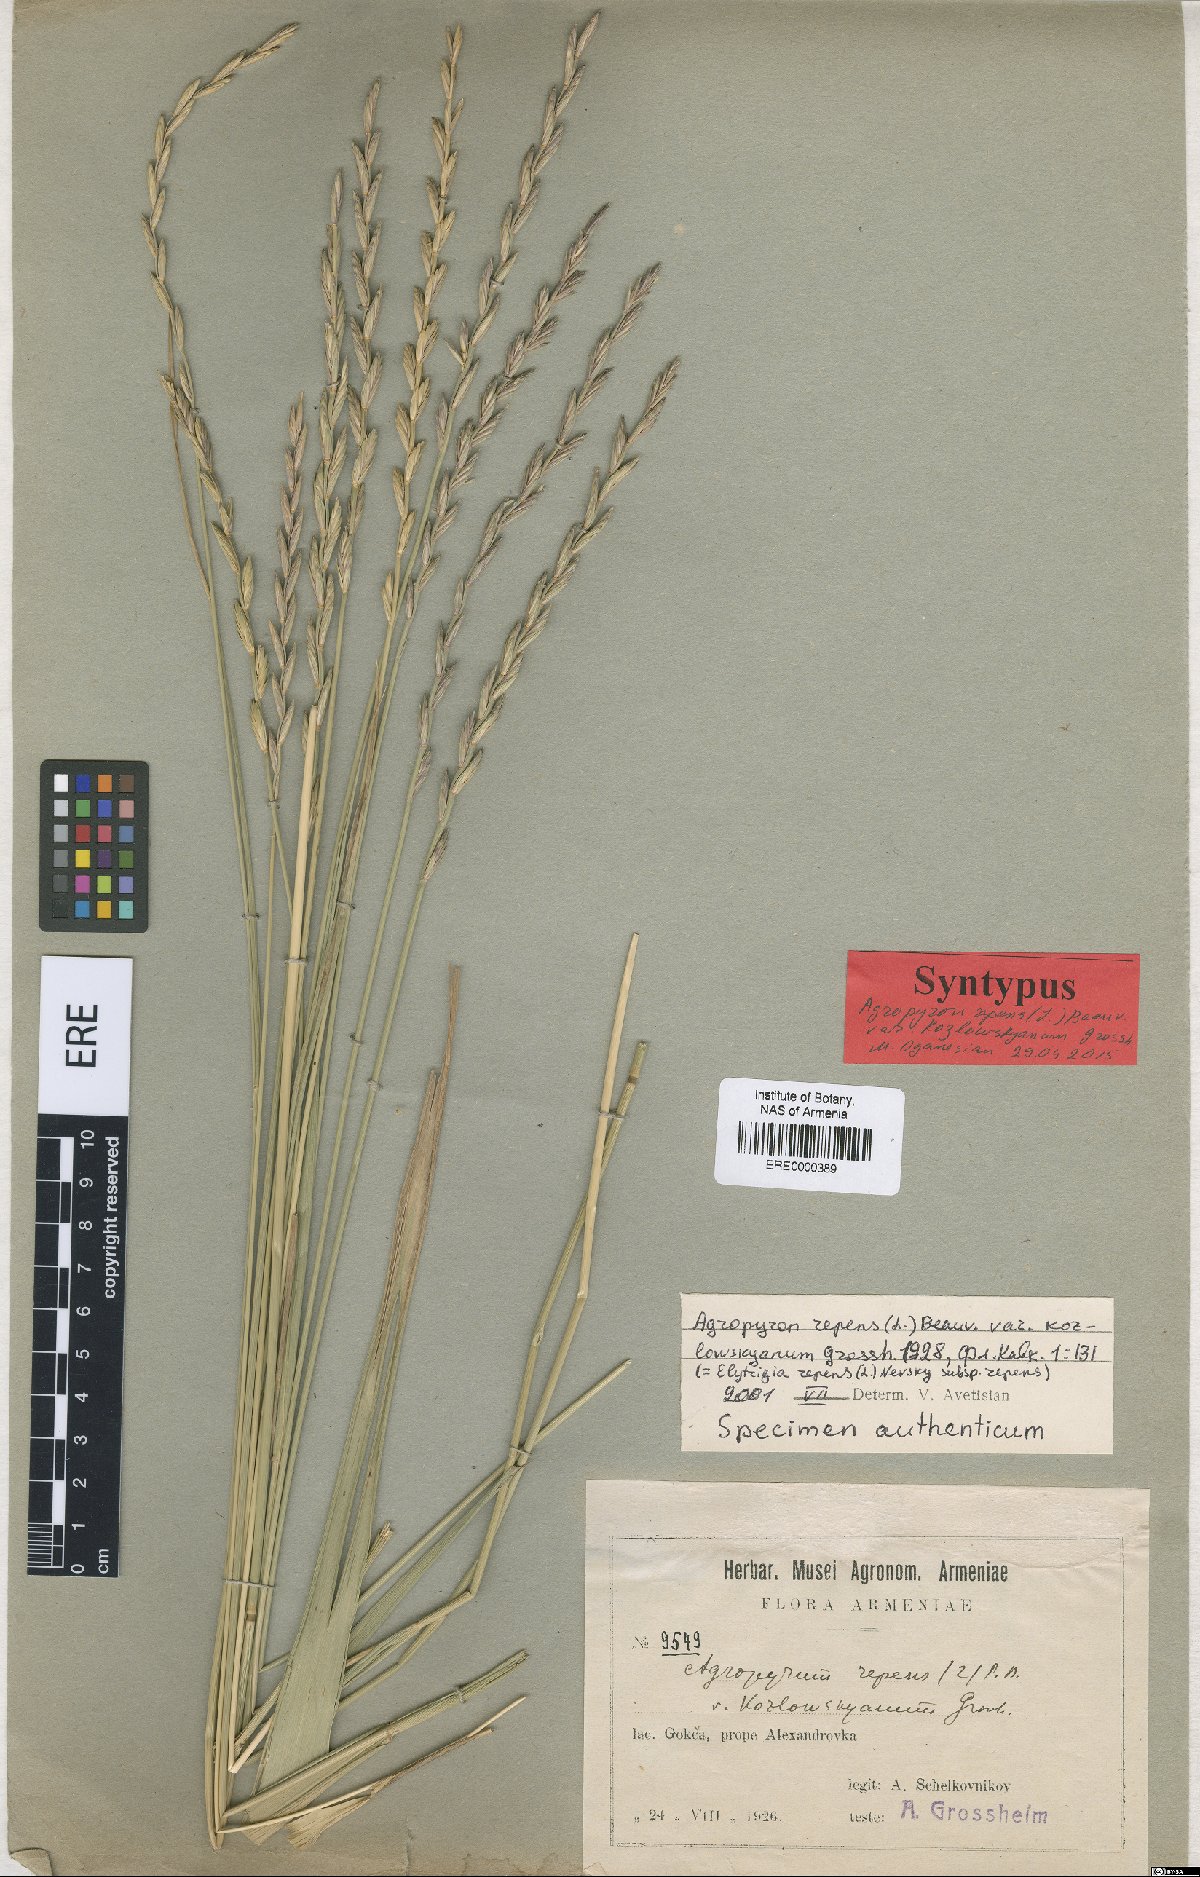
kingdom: Plantae
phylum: Tracheophyta
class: Liliopsida
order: Poales
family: Poaceae
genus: Elymus
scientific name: Elymus repens
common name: Quackgrass
